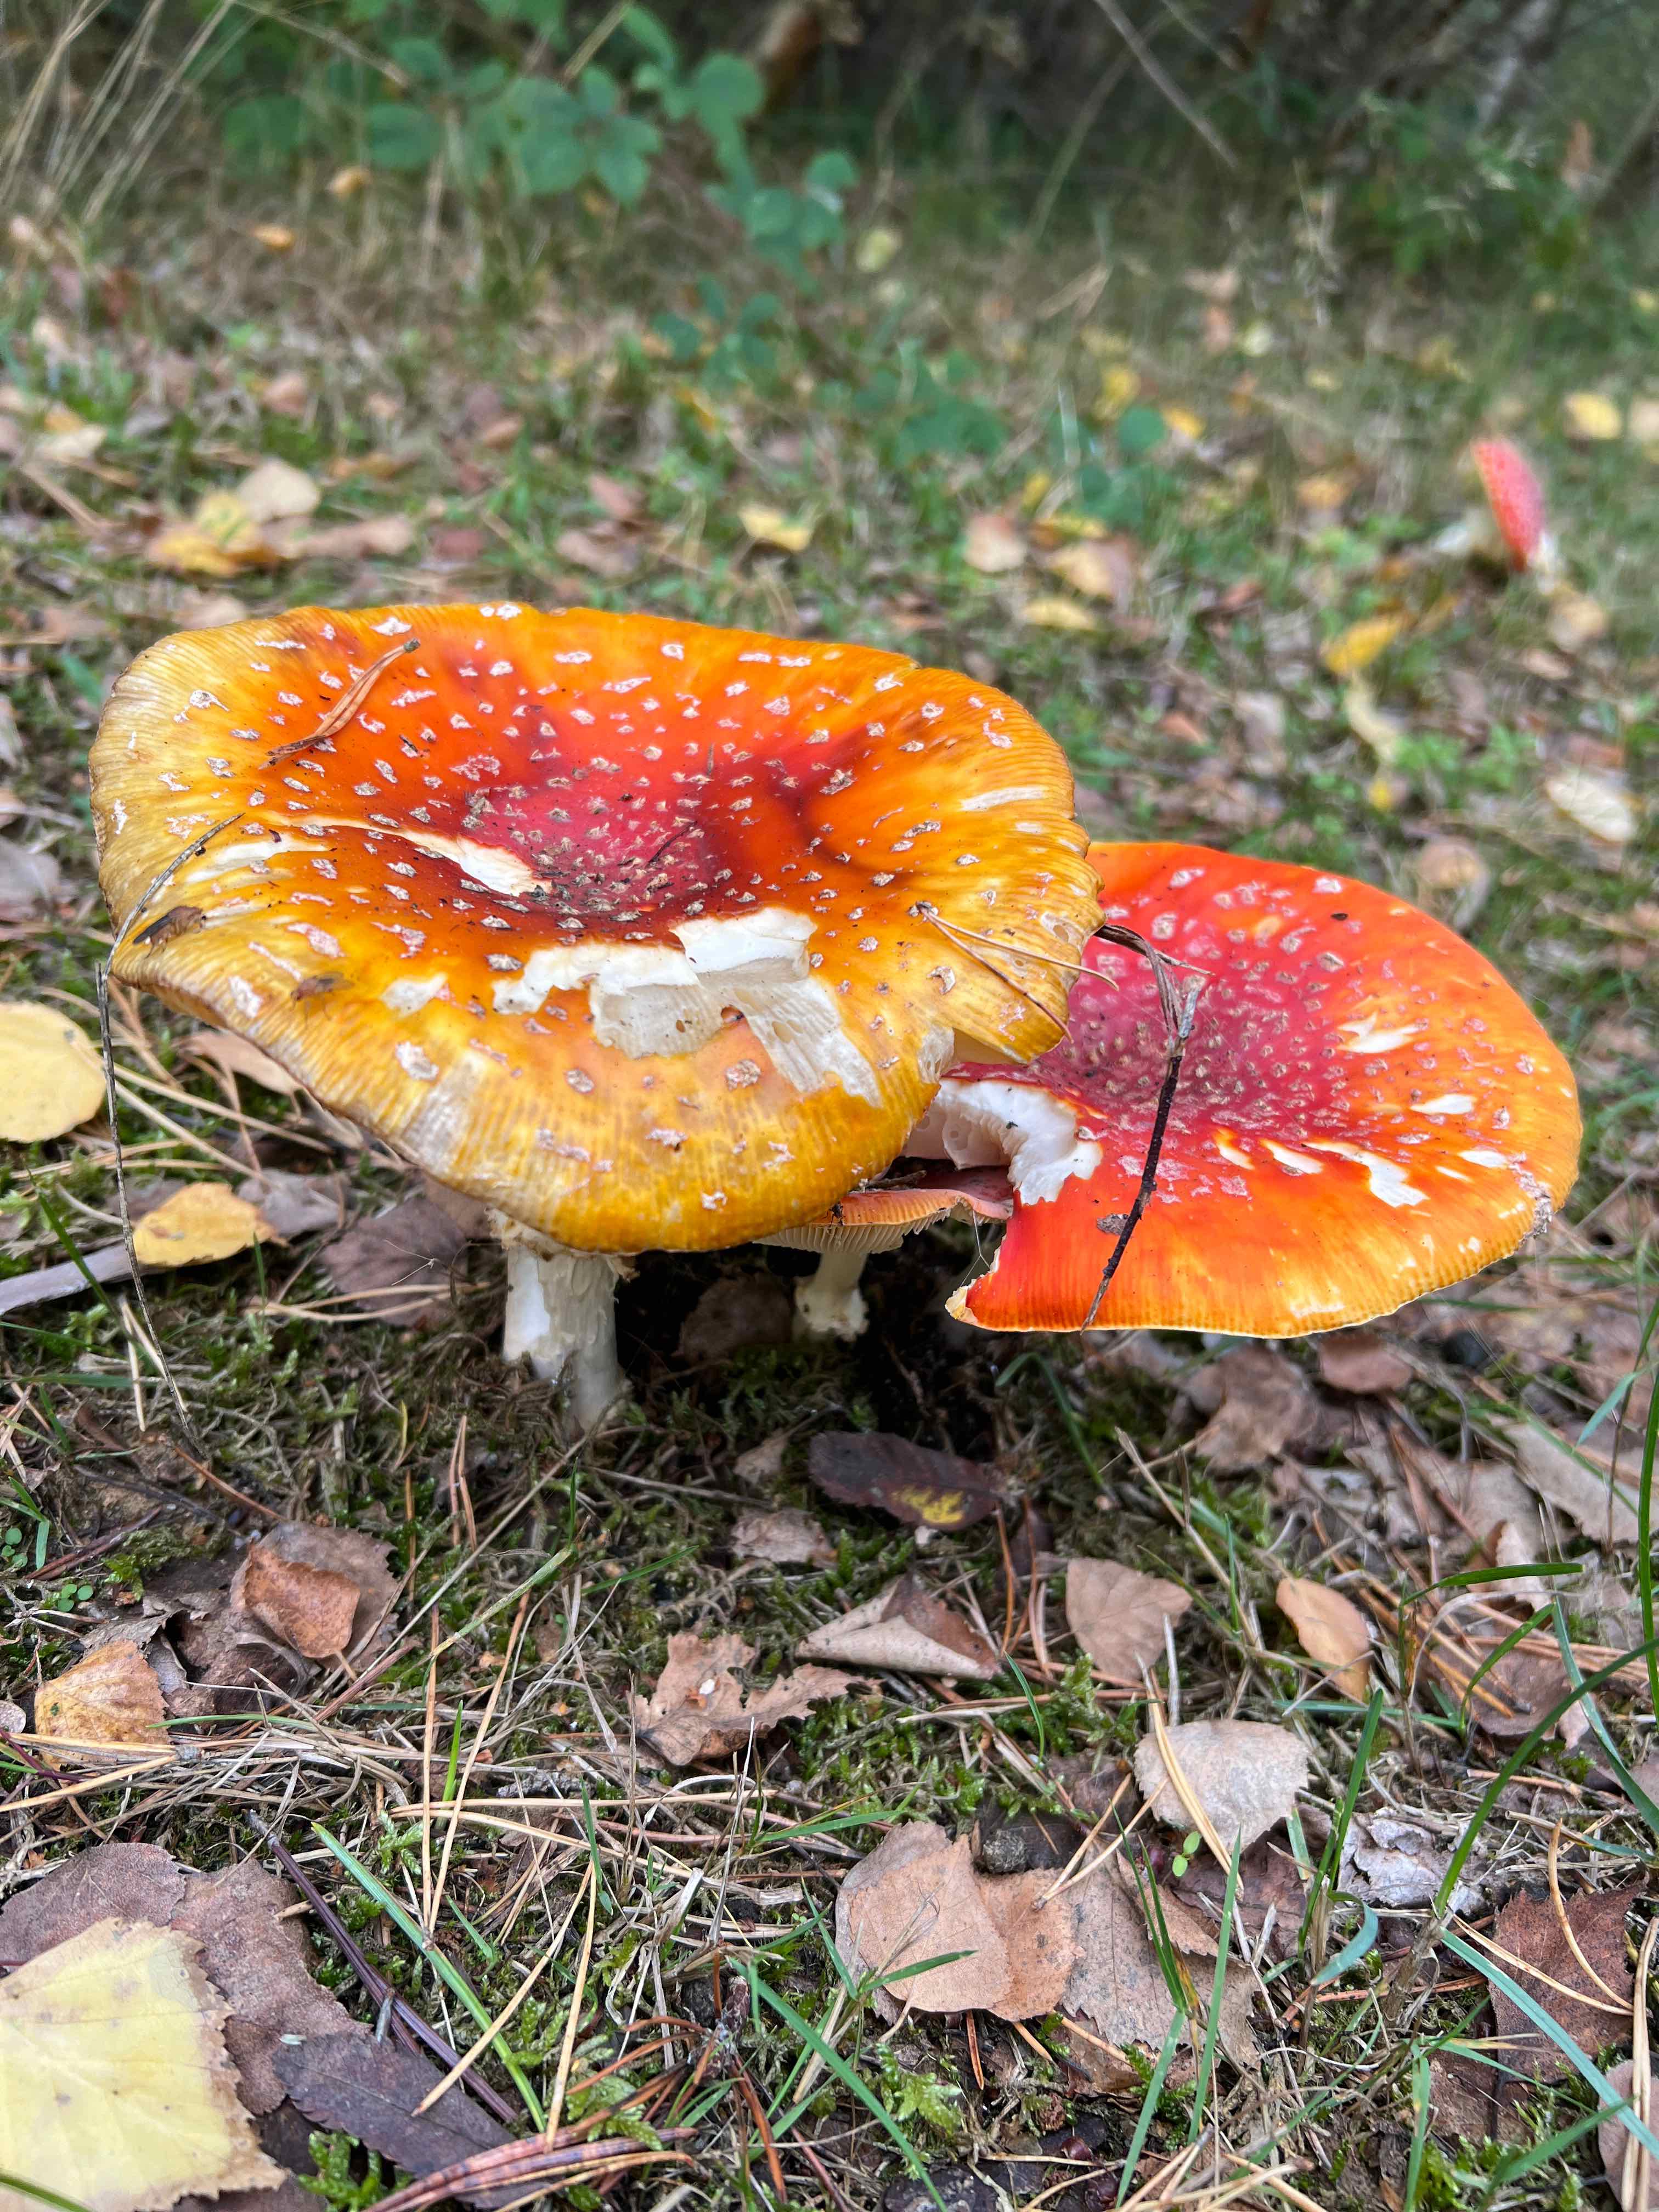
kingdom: Fungi
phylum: Basidiomycota
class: Agaricomycetes
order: Agaricales
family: Amanitaceae
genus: Amanita
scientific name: Amanita muscaria
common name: rød fluesvamp
